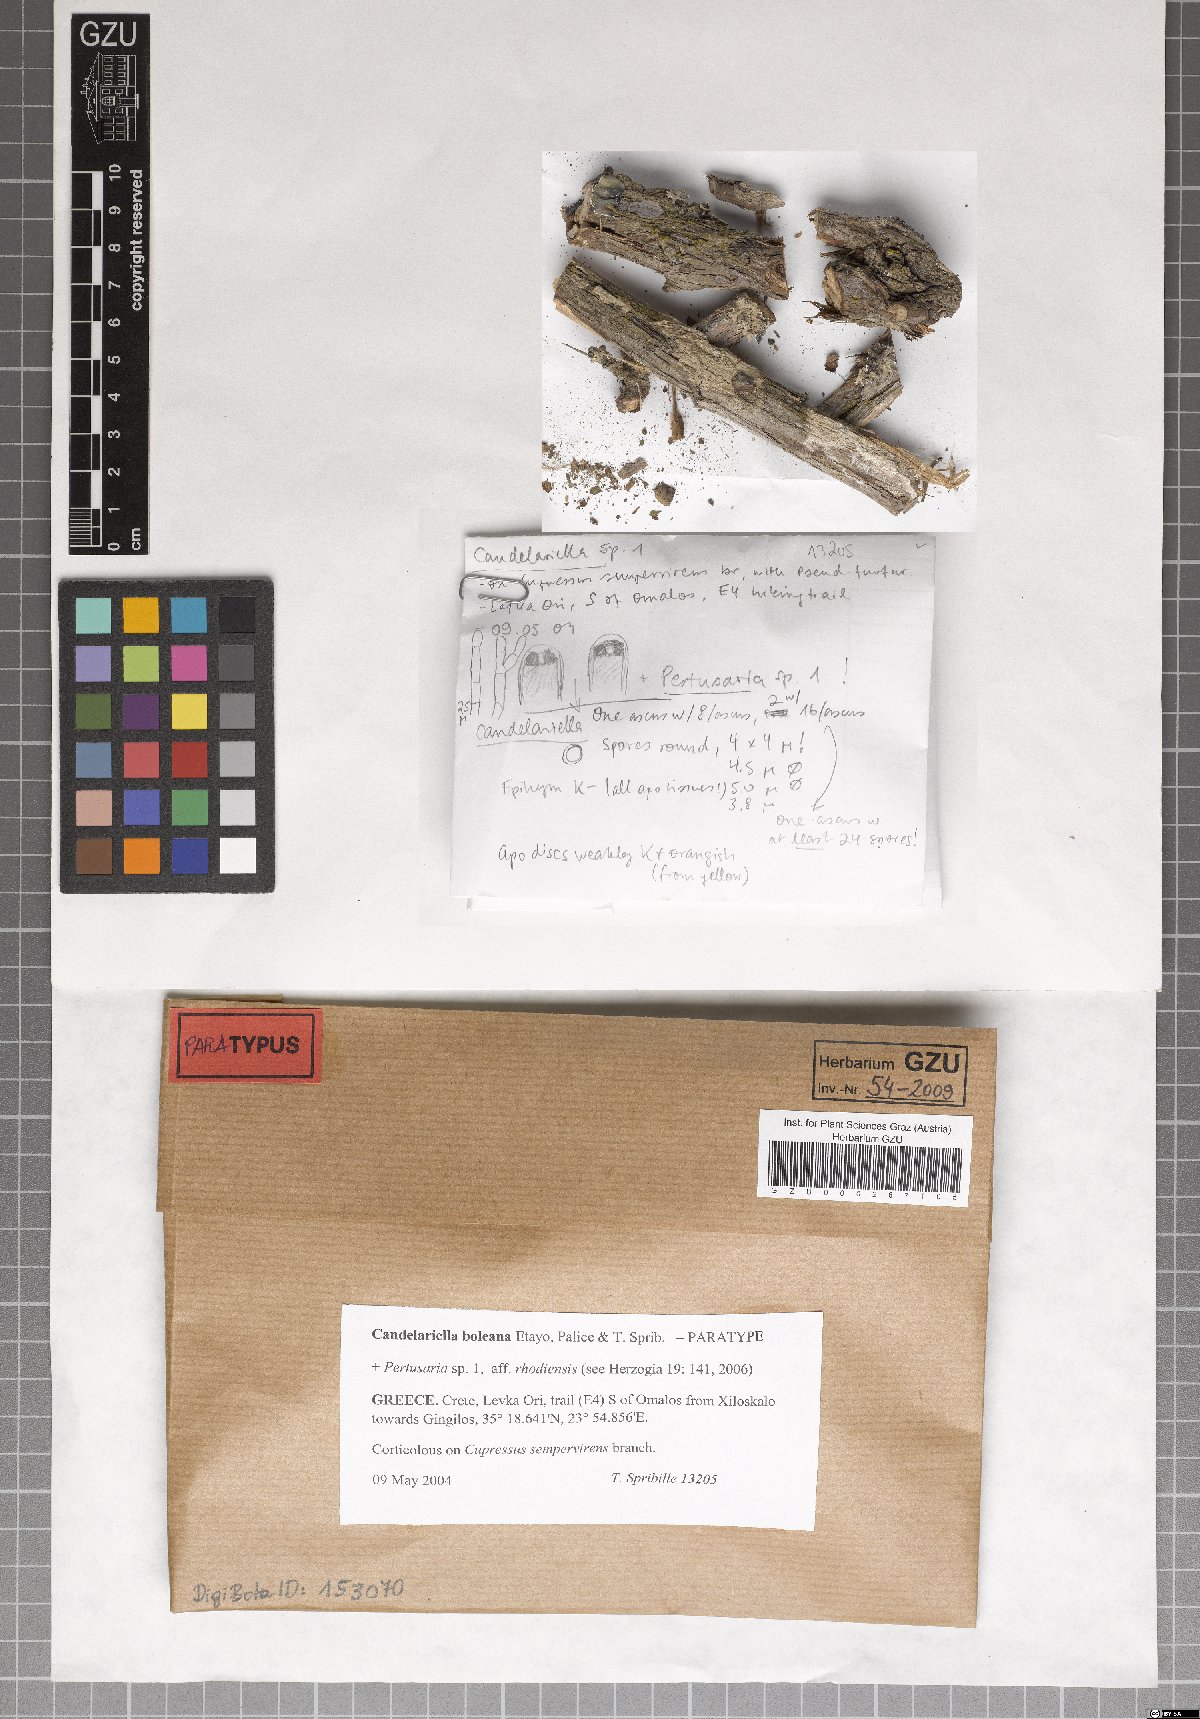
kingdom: Fungi
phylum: Ascomycota
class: Candelariomycetes
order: Candelariales
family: Candelariaceae
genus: Candelariella
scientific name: Candelariella boleana
